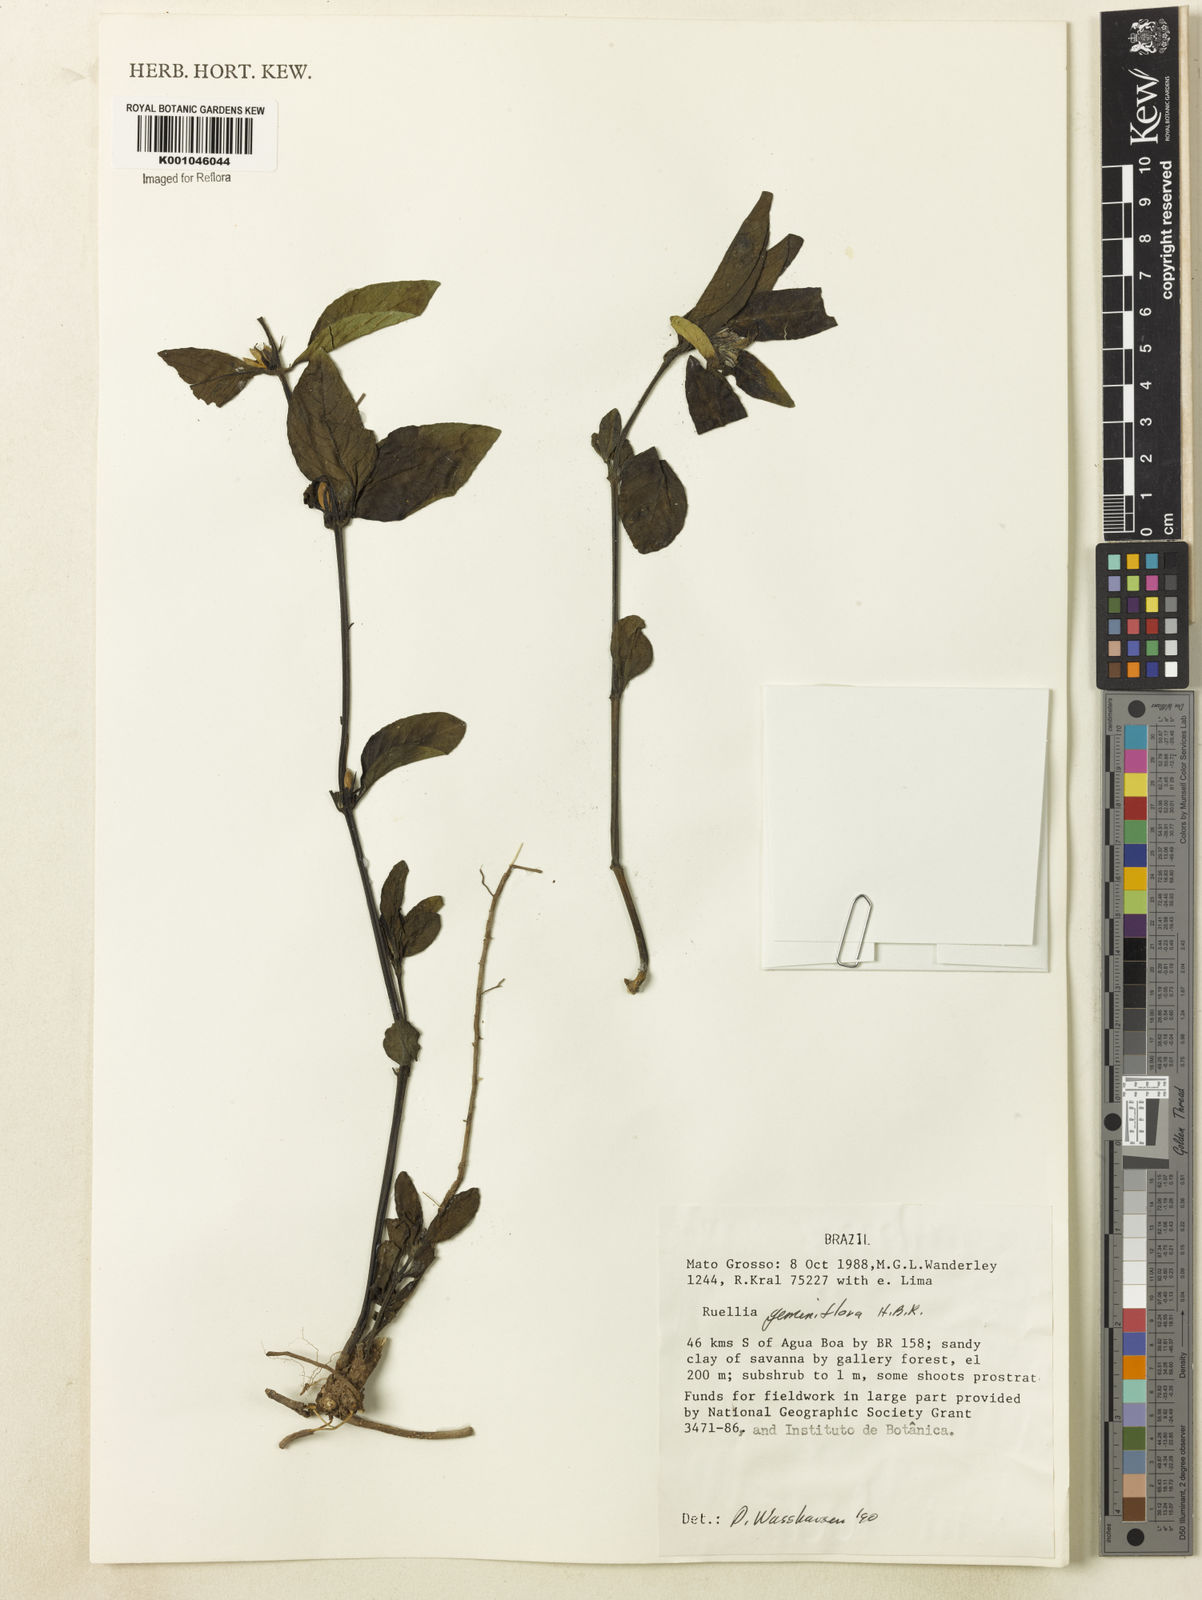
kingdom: Plantae
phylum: Tracheophyta
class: Magnoliopsida
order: Lamiales
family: Acanthaceae
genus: Ruellia
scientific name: Ruellia geminiflora
